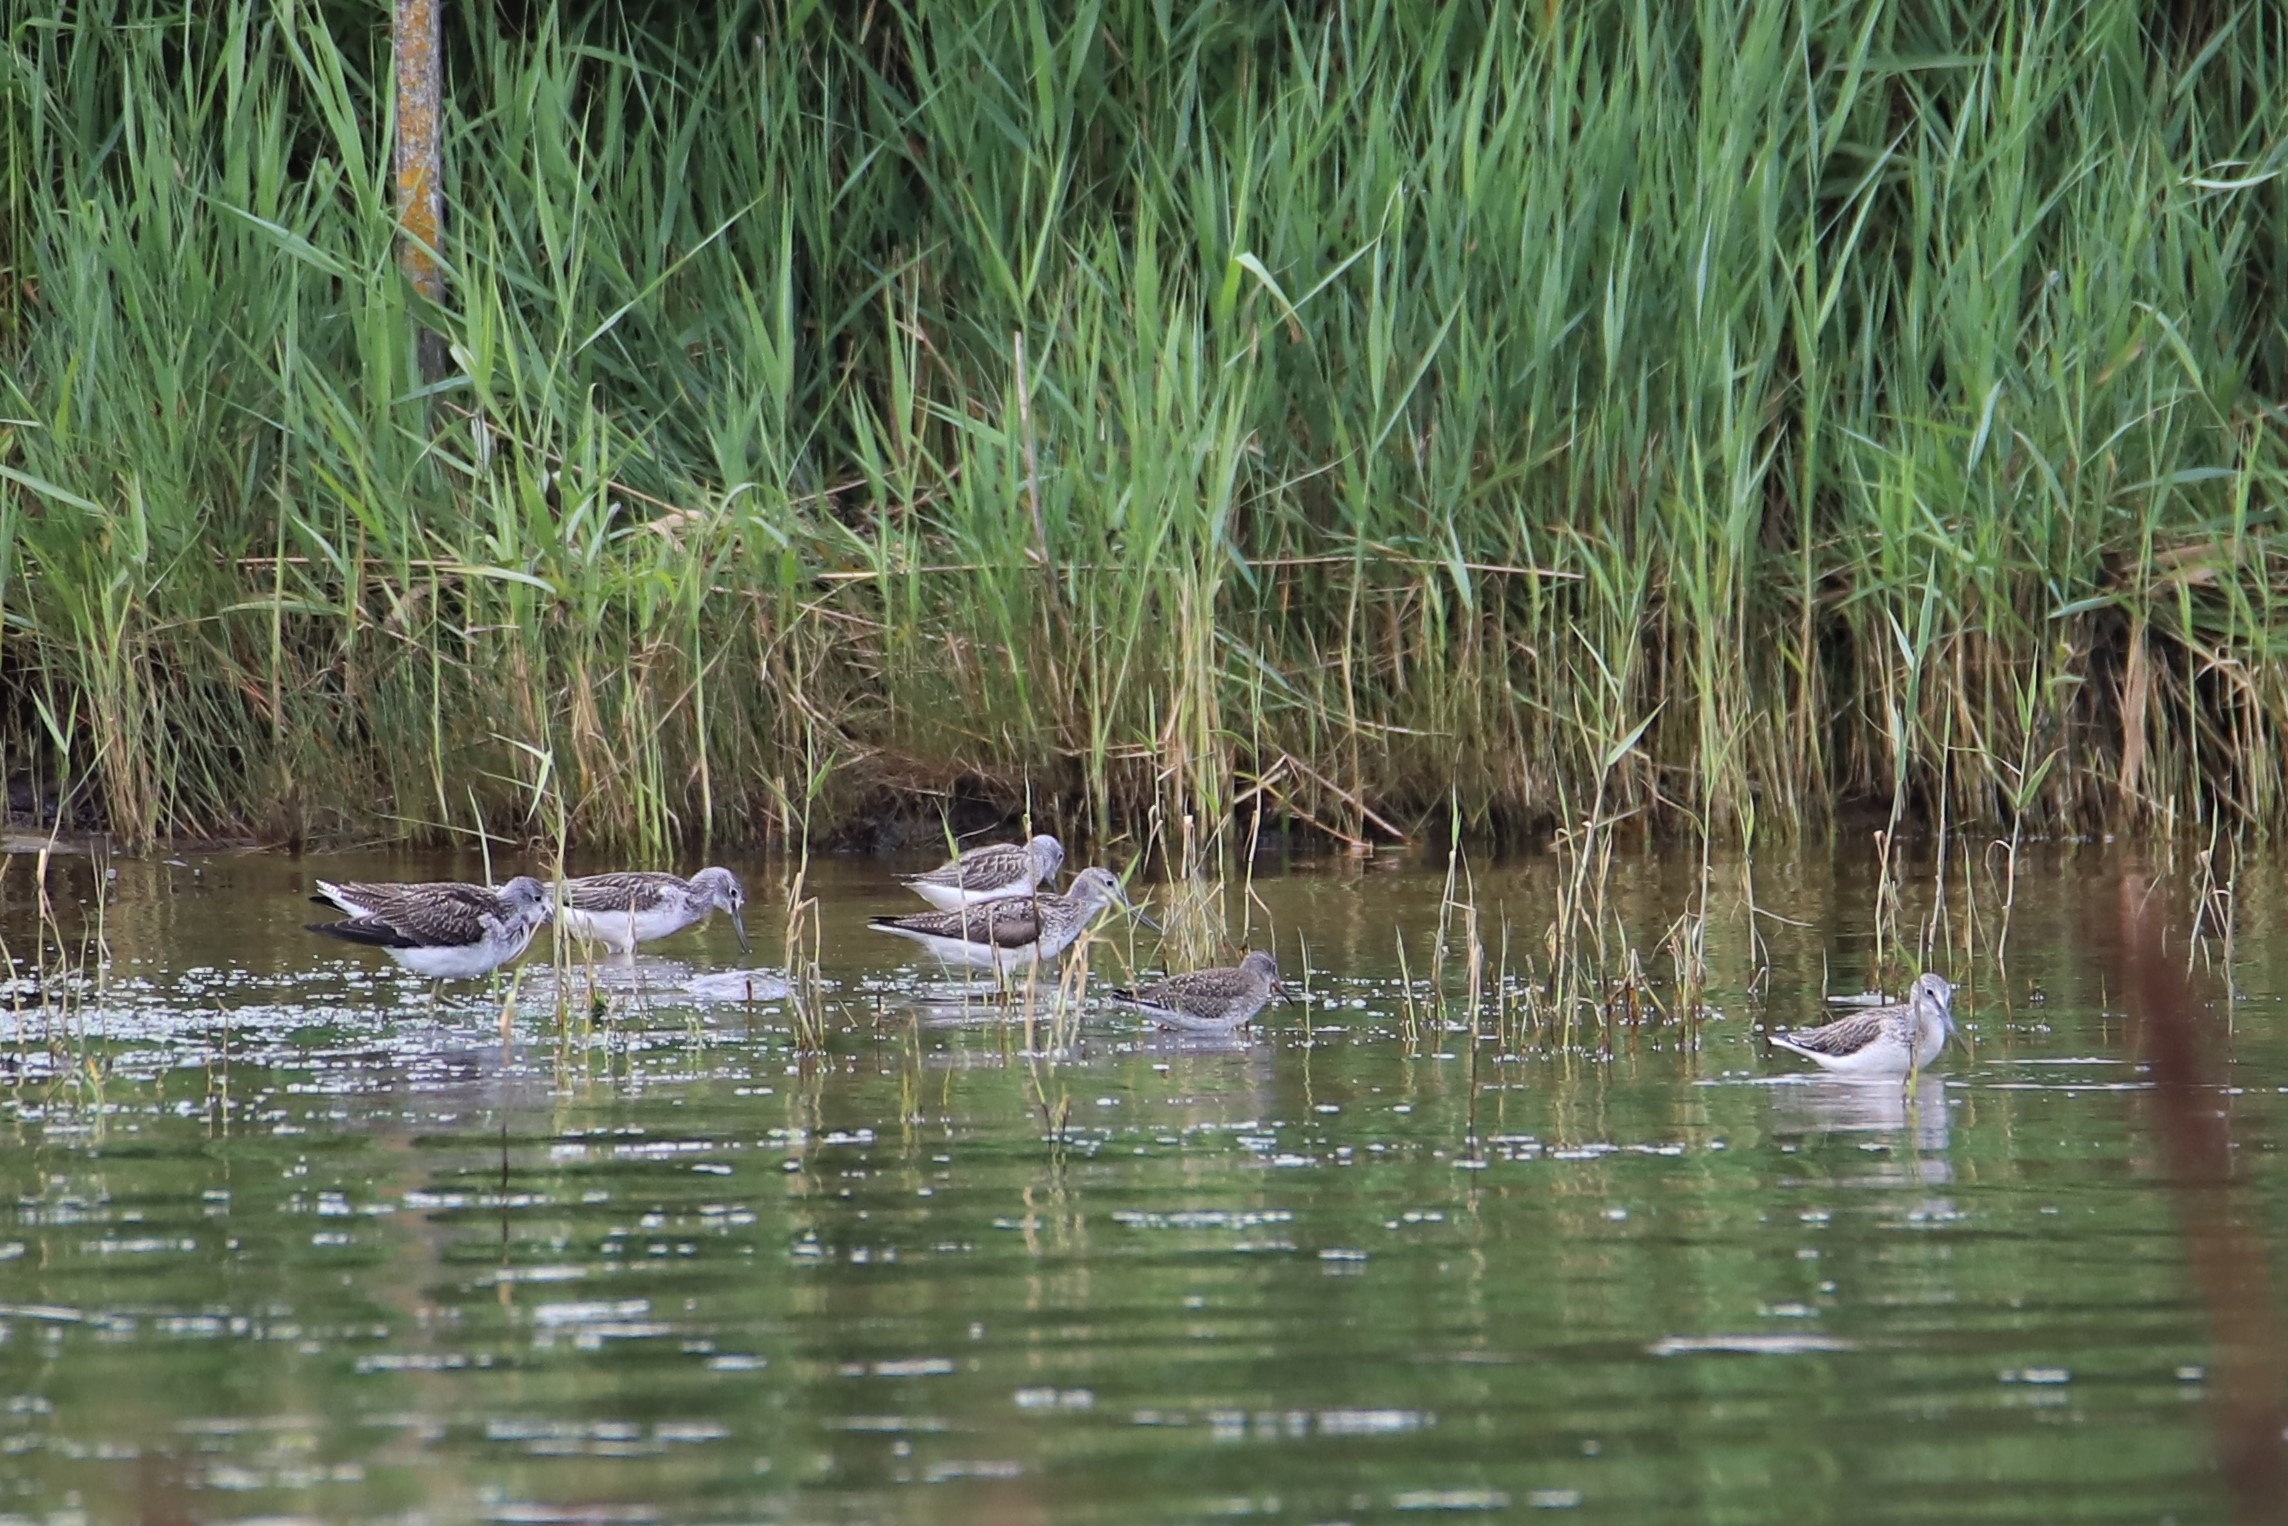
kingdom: Animalia
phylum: Chordata
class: Aves
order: Charadriiformes
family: Scolopacidae
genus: Tringa
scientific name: Tringa nebularia
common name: Hvidklire
